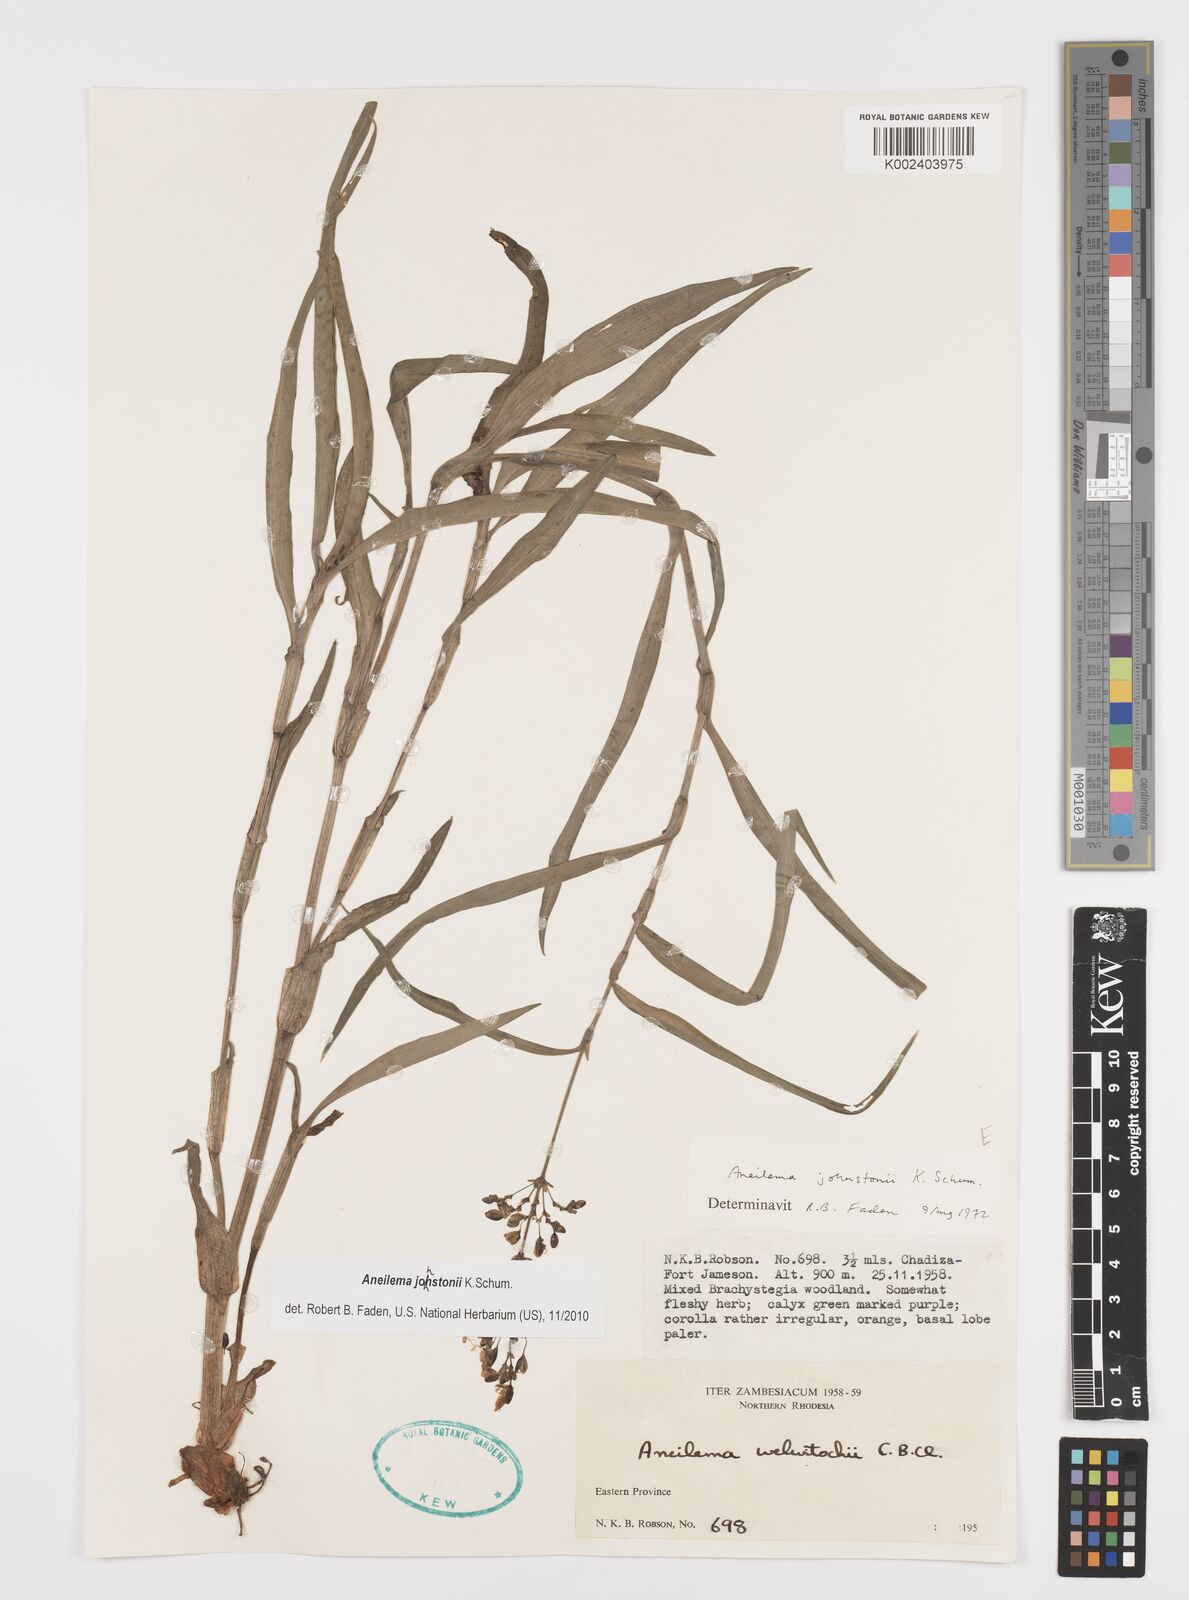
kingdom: Plantae
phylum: Tracheophyta
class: Liliopsida
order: Commelinales
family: Commelinaceae
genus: Aneilema
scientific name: Aneilema johnstonii
